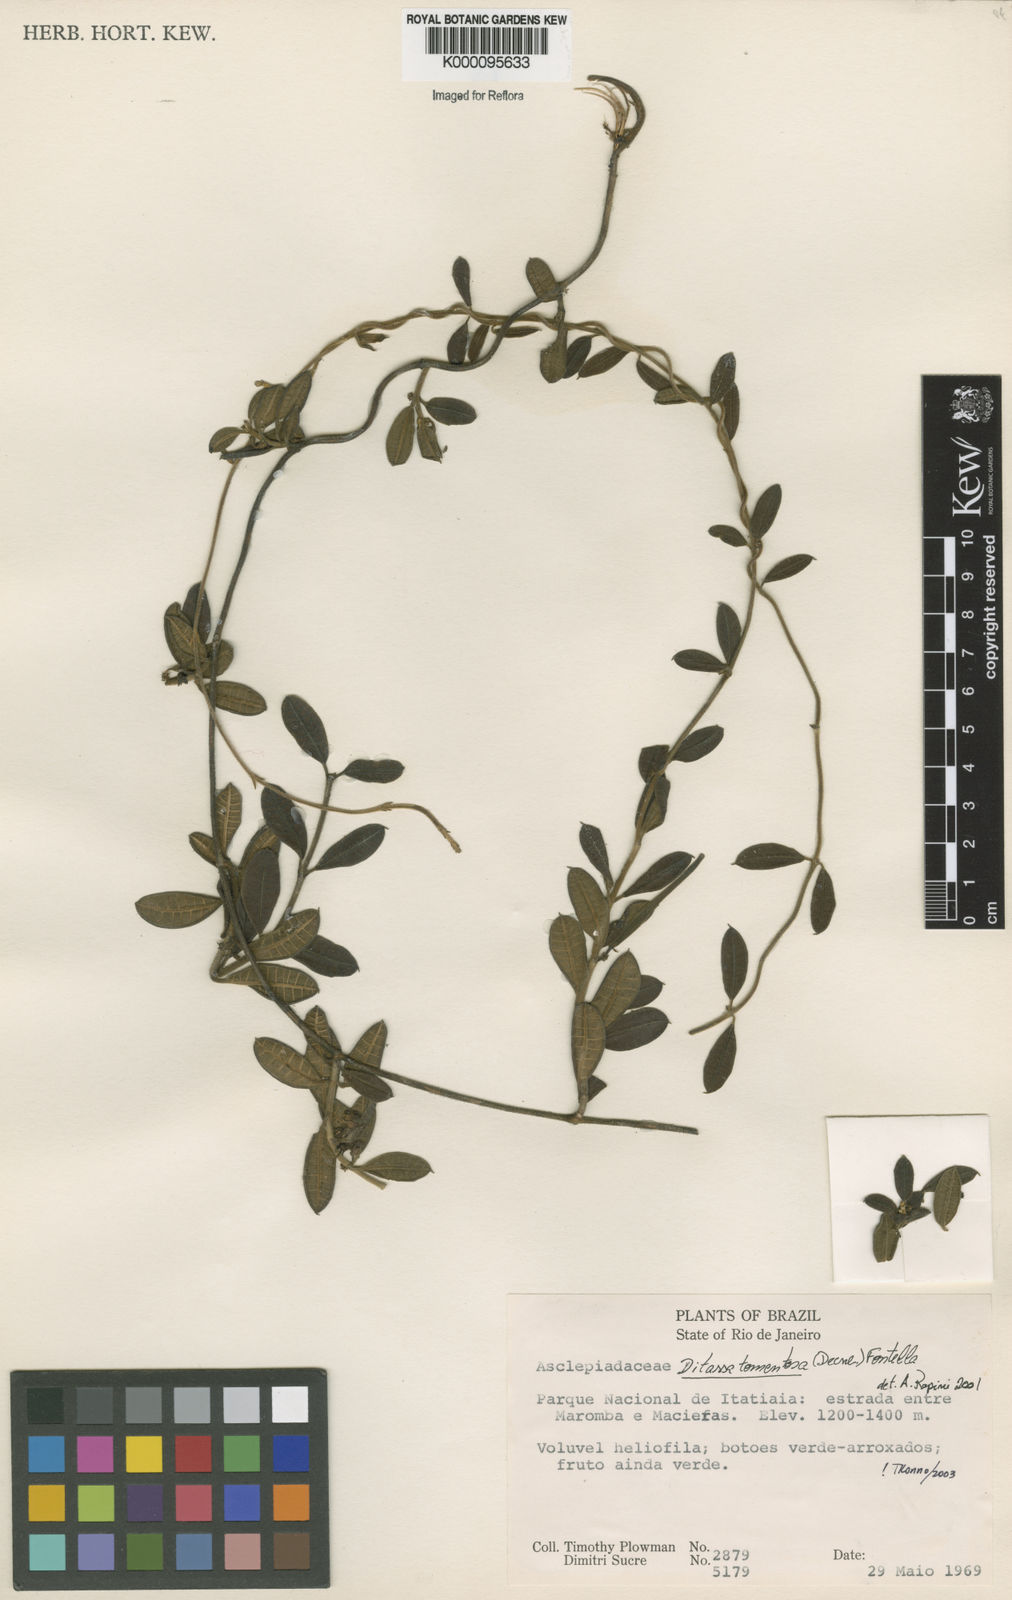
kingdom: Plantae
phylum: Tracheophyta
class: Magnoliopsida
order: Gentianales
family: Apocynaceae
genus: Ditassa
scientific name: Ditassa tomentosa
